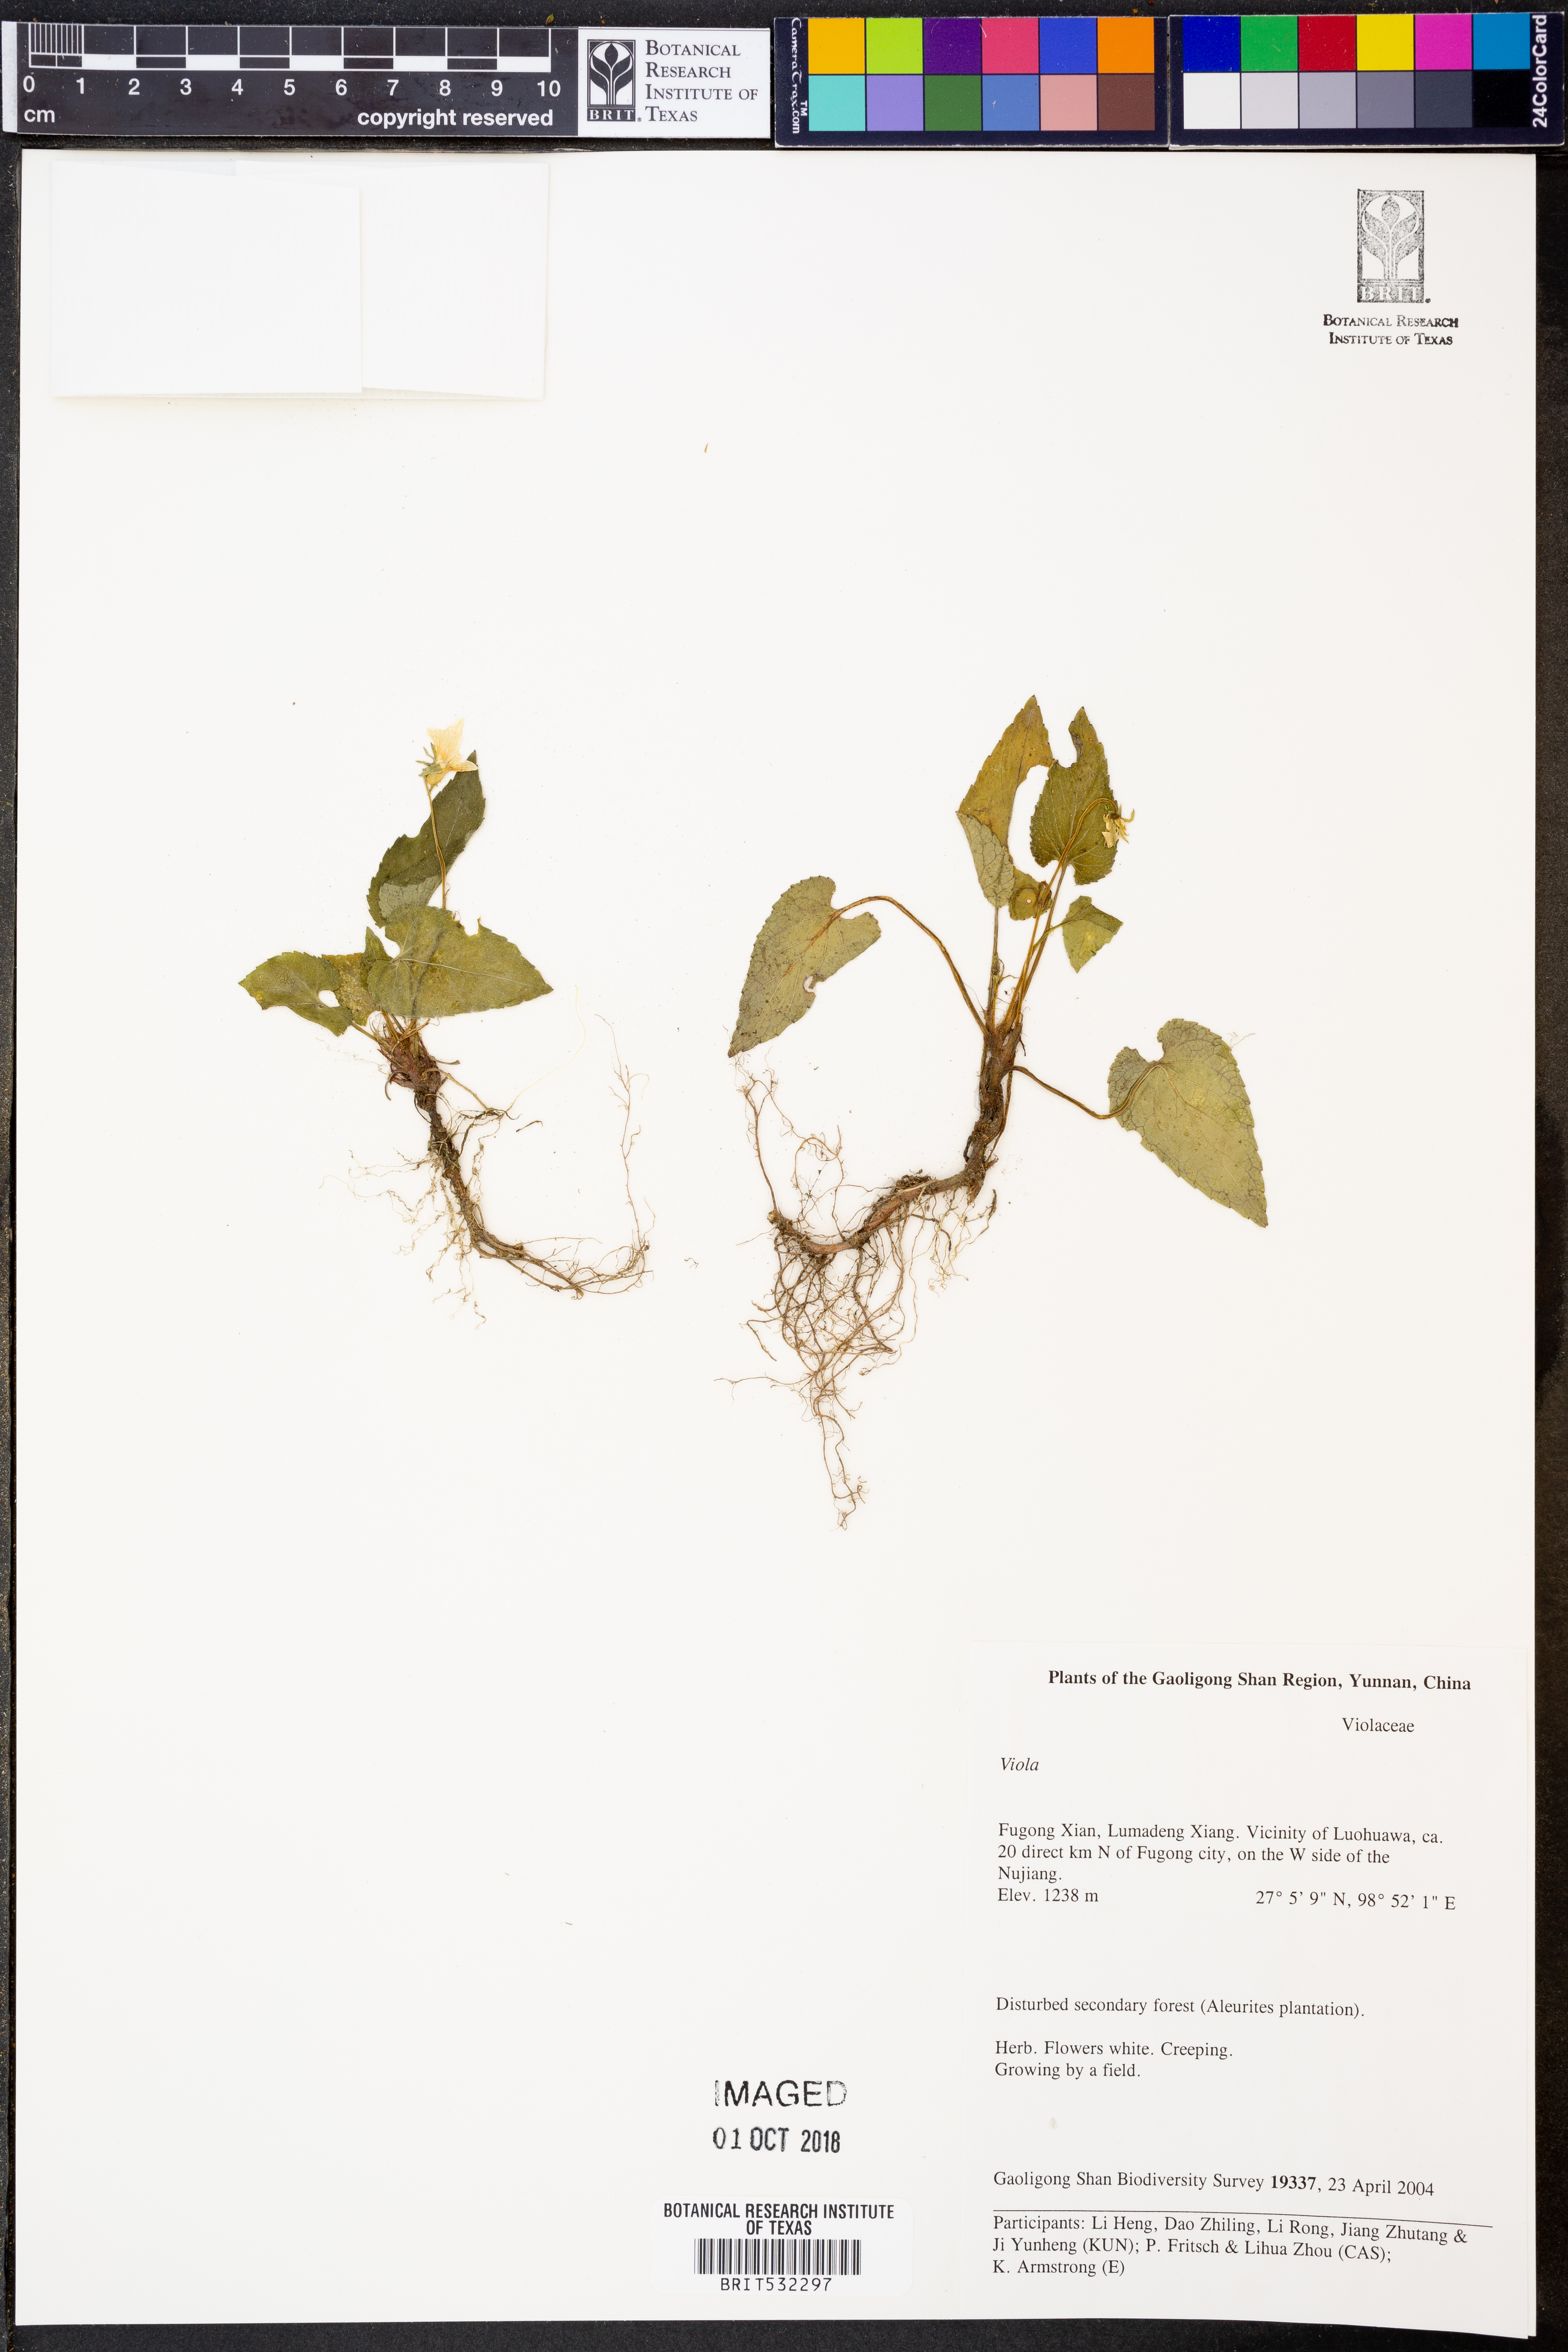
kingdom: Plantae
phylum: Tracheophyta
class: Magnoliopsida
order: Malpighiales
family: Violaceae
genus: Viola
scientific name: Viola
